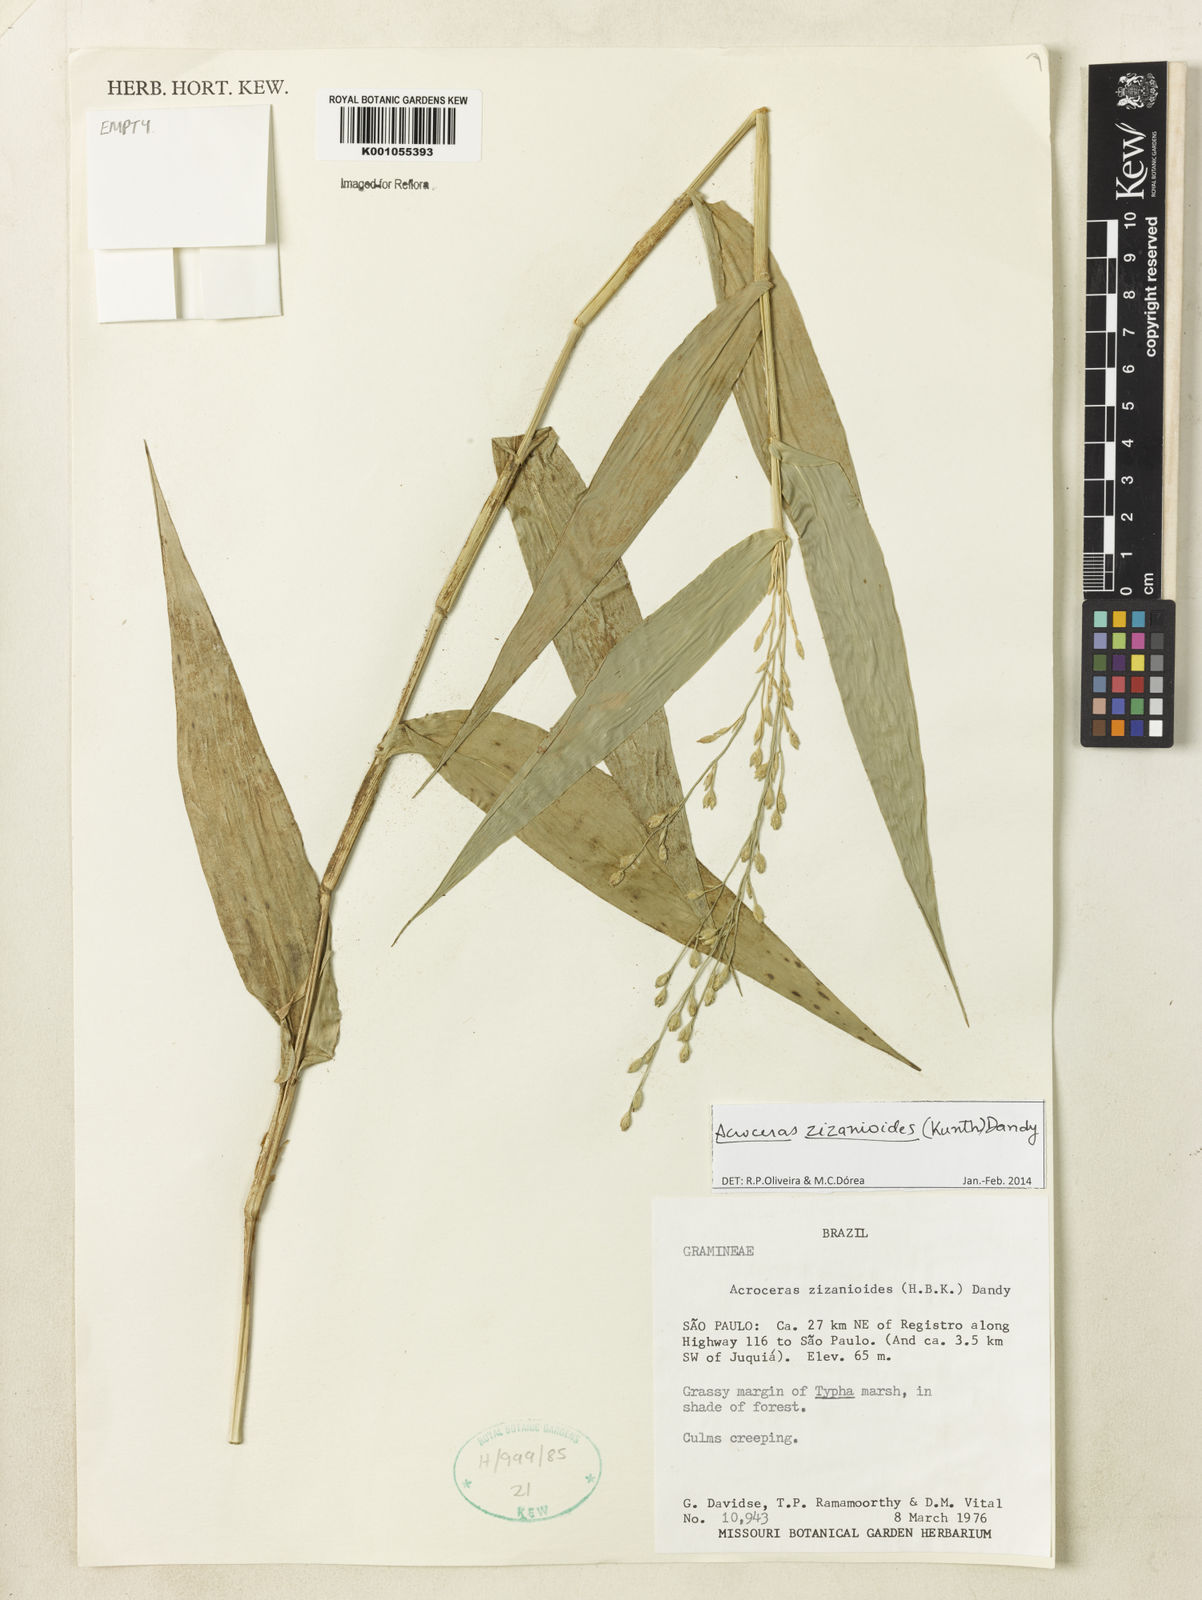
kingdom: Plantae
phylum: Tracheophyta
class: Liliopsida
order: Poales
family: Poaceae
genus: Acroceras
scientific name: Acroceras zizanioides
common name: Oat grass
